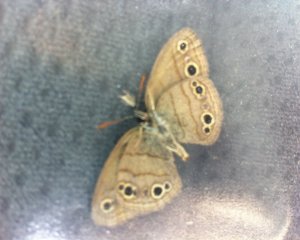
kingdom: Animalia
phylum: Arthropoda
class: Insecta
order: Lepidoptera
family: Nymphalidae
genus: Euptychia
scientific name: Euptychia cymela
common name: Little Wood Satyr
